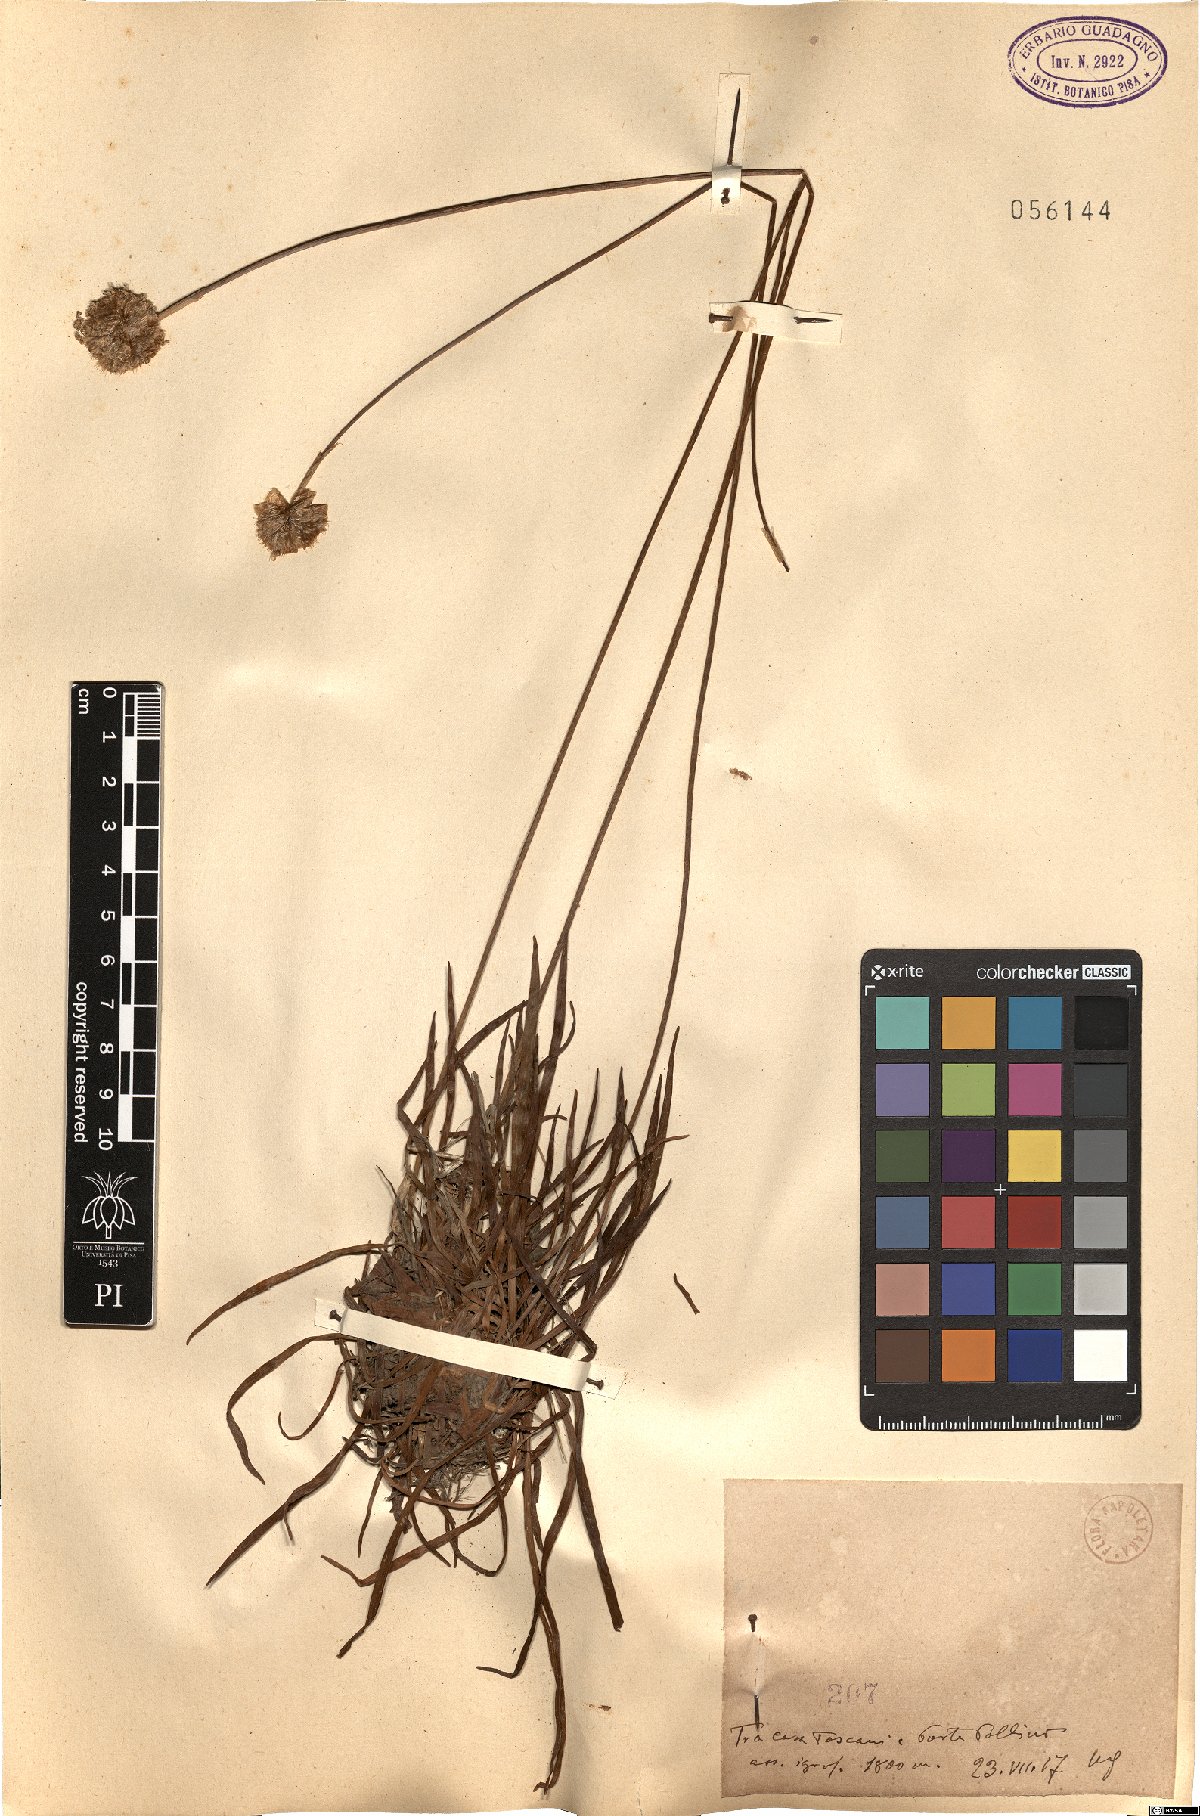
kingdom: Plantae
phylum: Tracheophyta
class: Magnoliopsida
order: Caryophyllales
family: Plumbaginaceae
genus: Armeria
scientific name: Armeria
